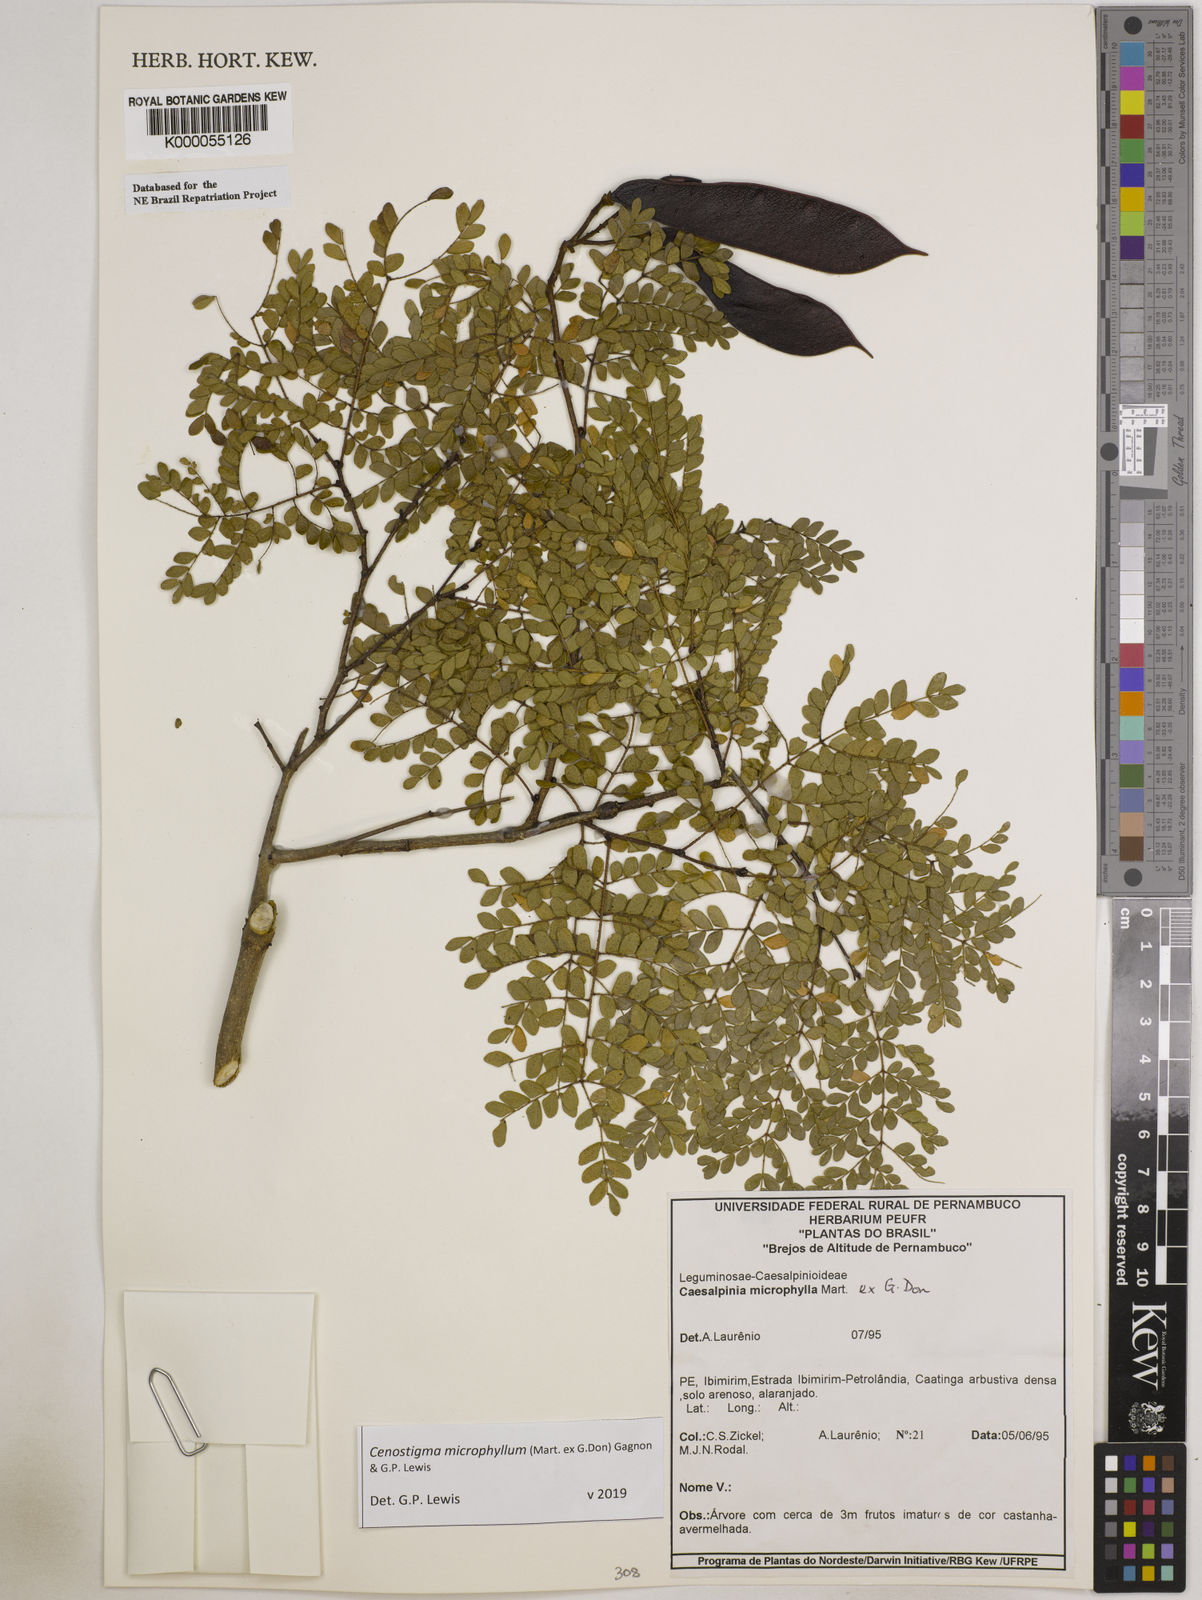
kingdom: Plantae
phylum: Tracheophyta
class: Magnoliopsida
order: Fabales
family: Fabaceae
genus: Cenostigma
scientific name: Cenostigma microphyllum
